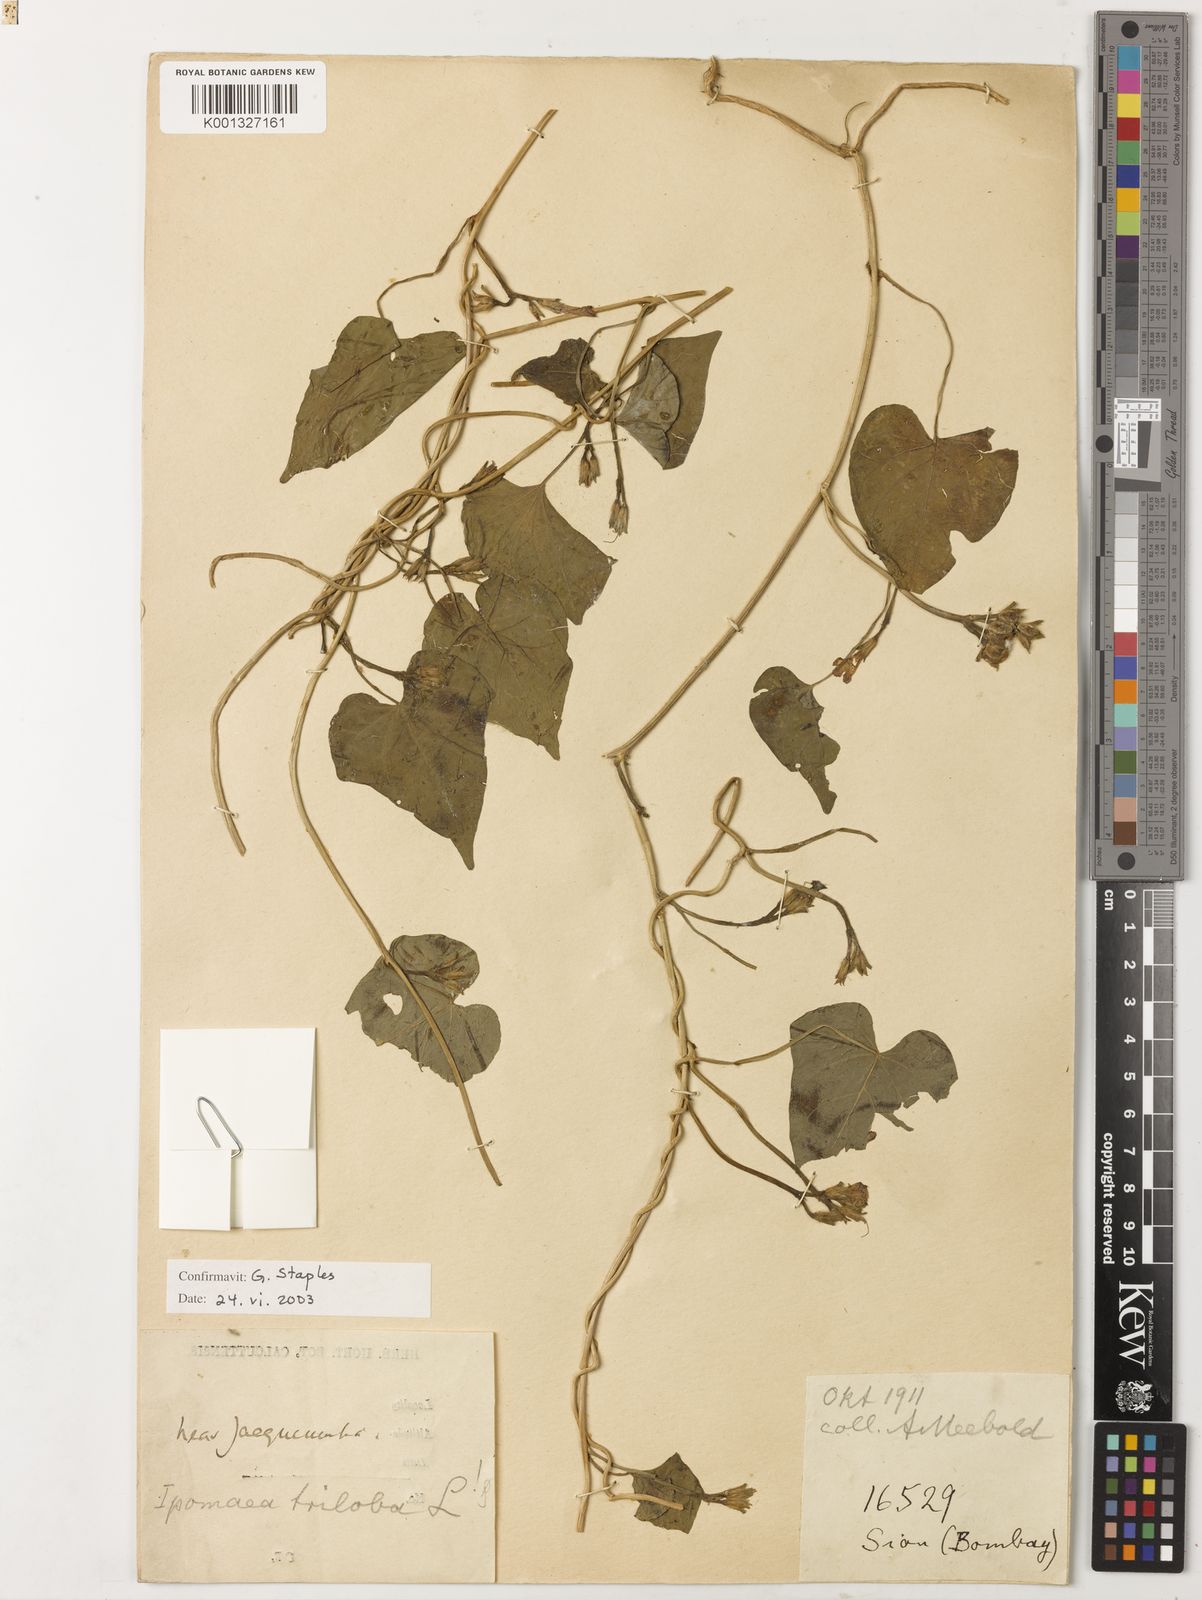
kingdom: Plantae
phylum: Tracheophyta
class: Magnoliopsida
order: Solanales
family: Convolvulaceae
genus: Ipomoea
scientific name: Ipomoea triloba
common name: Little-bell
